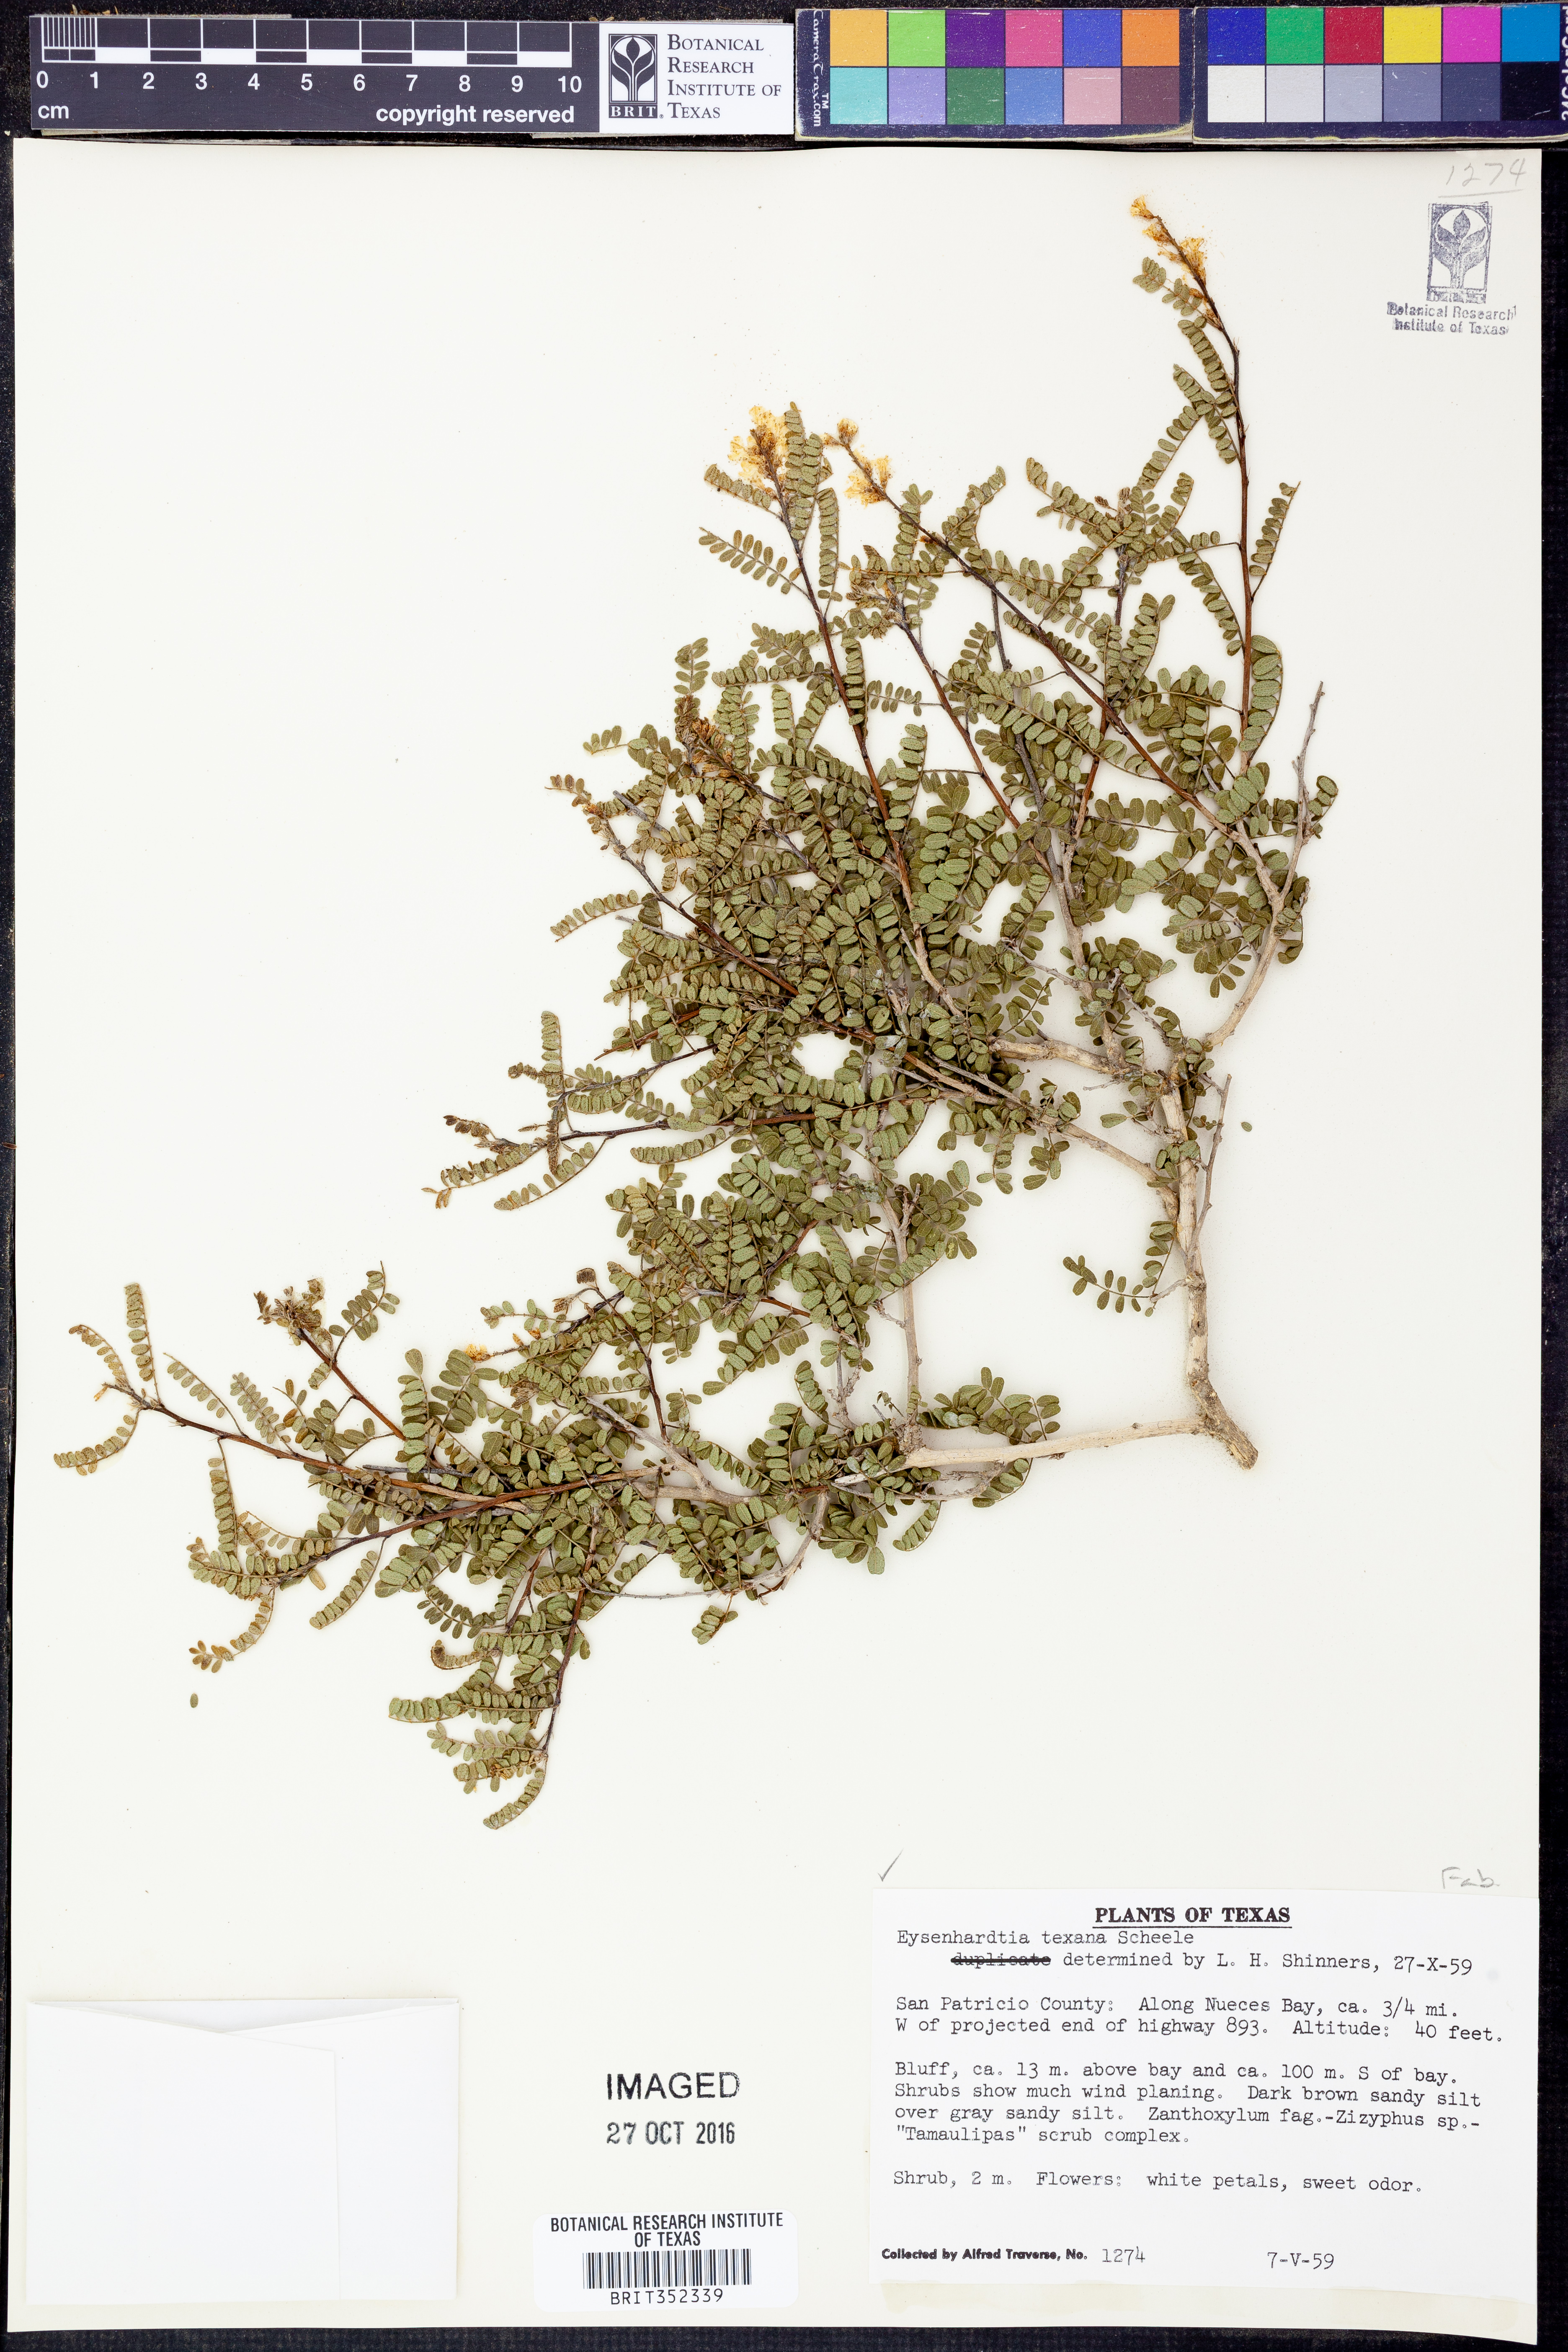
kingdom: Plantae
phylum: Tracheophyta
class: Magnoliopsida
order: Fabales
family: Fabaceae
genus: Eysenhardtia
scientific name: Eysenhardtia texana
